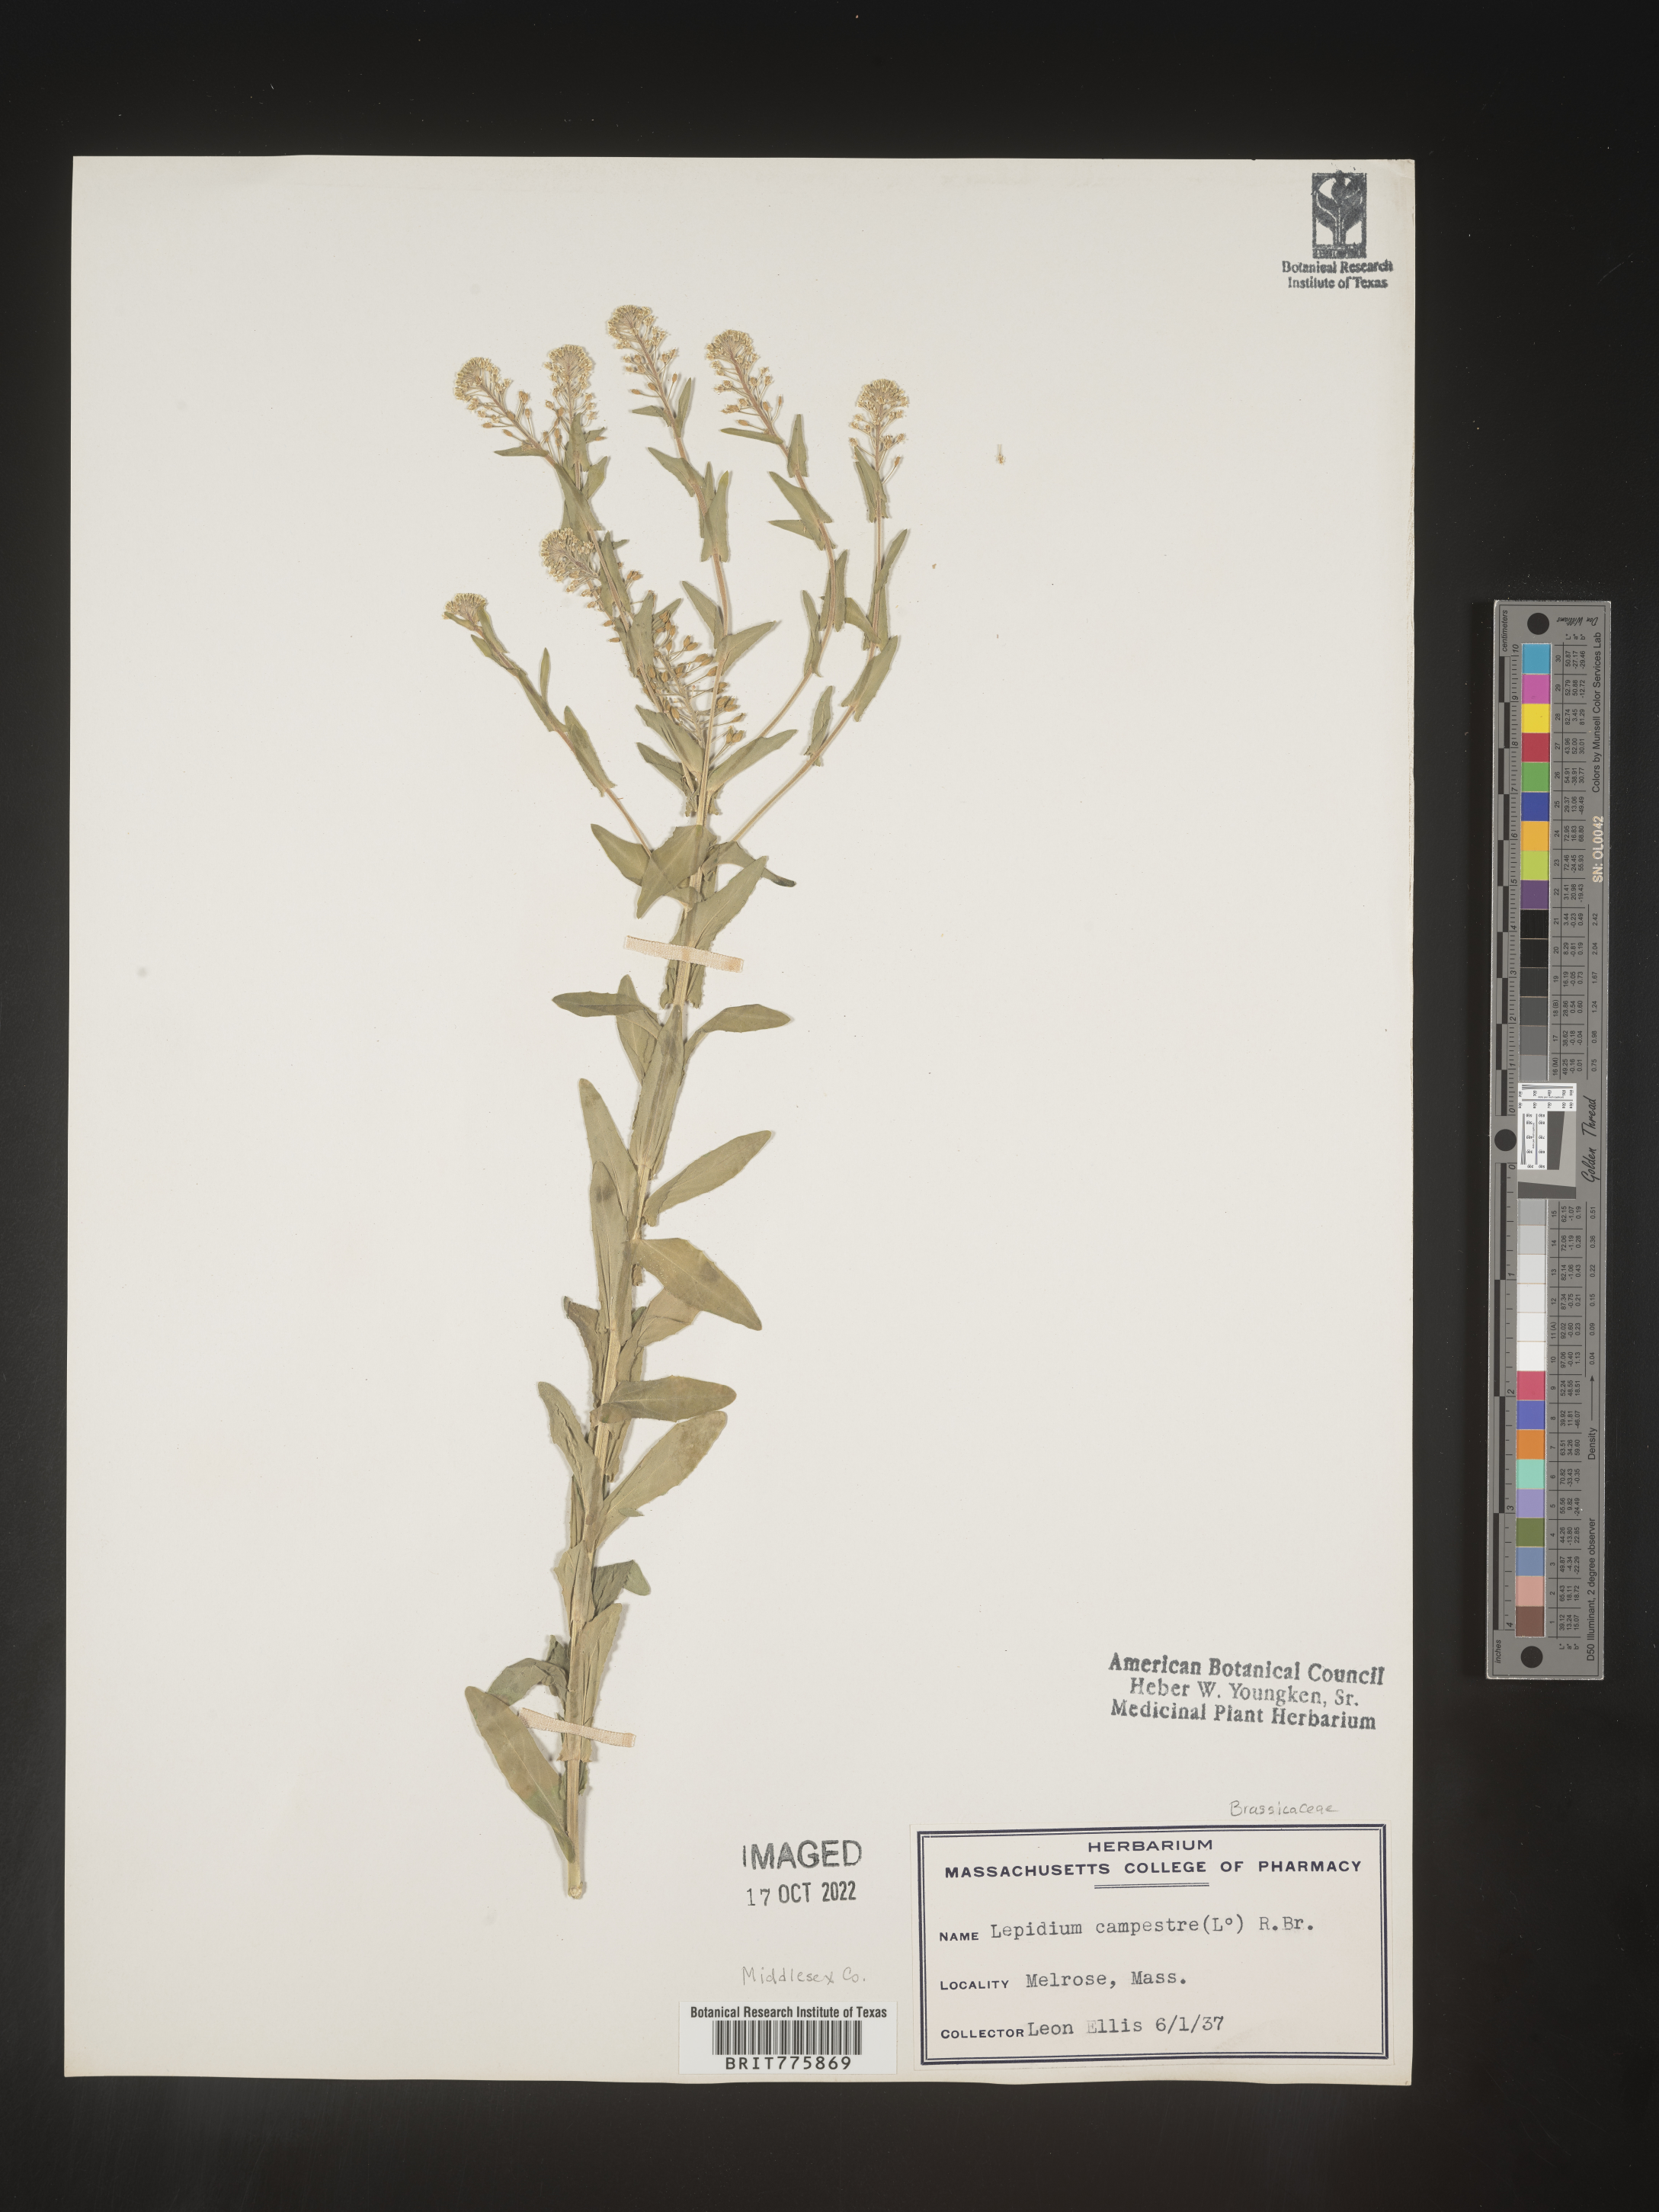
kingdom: Plantae
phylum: Tracheophyta
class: Magnoliopsida
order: Brassicales
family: Brassicaceae
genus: Lepidium
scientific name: Lepidium campestre
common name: Field pepperwort
